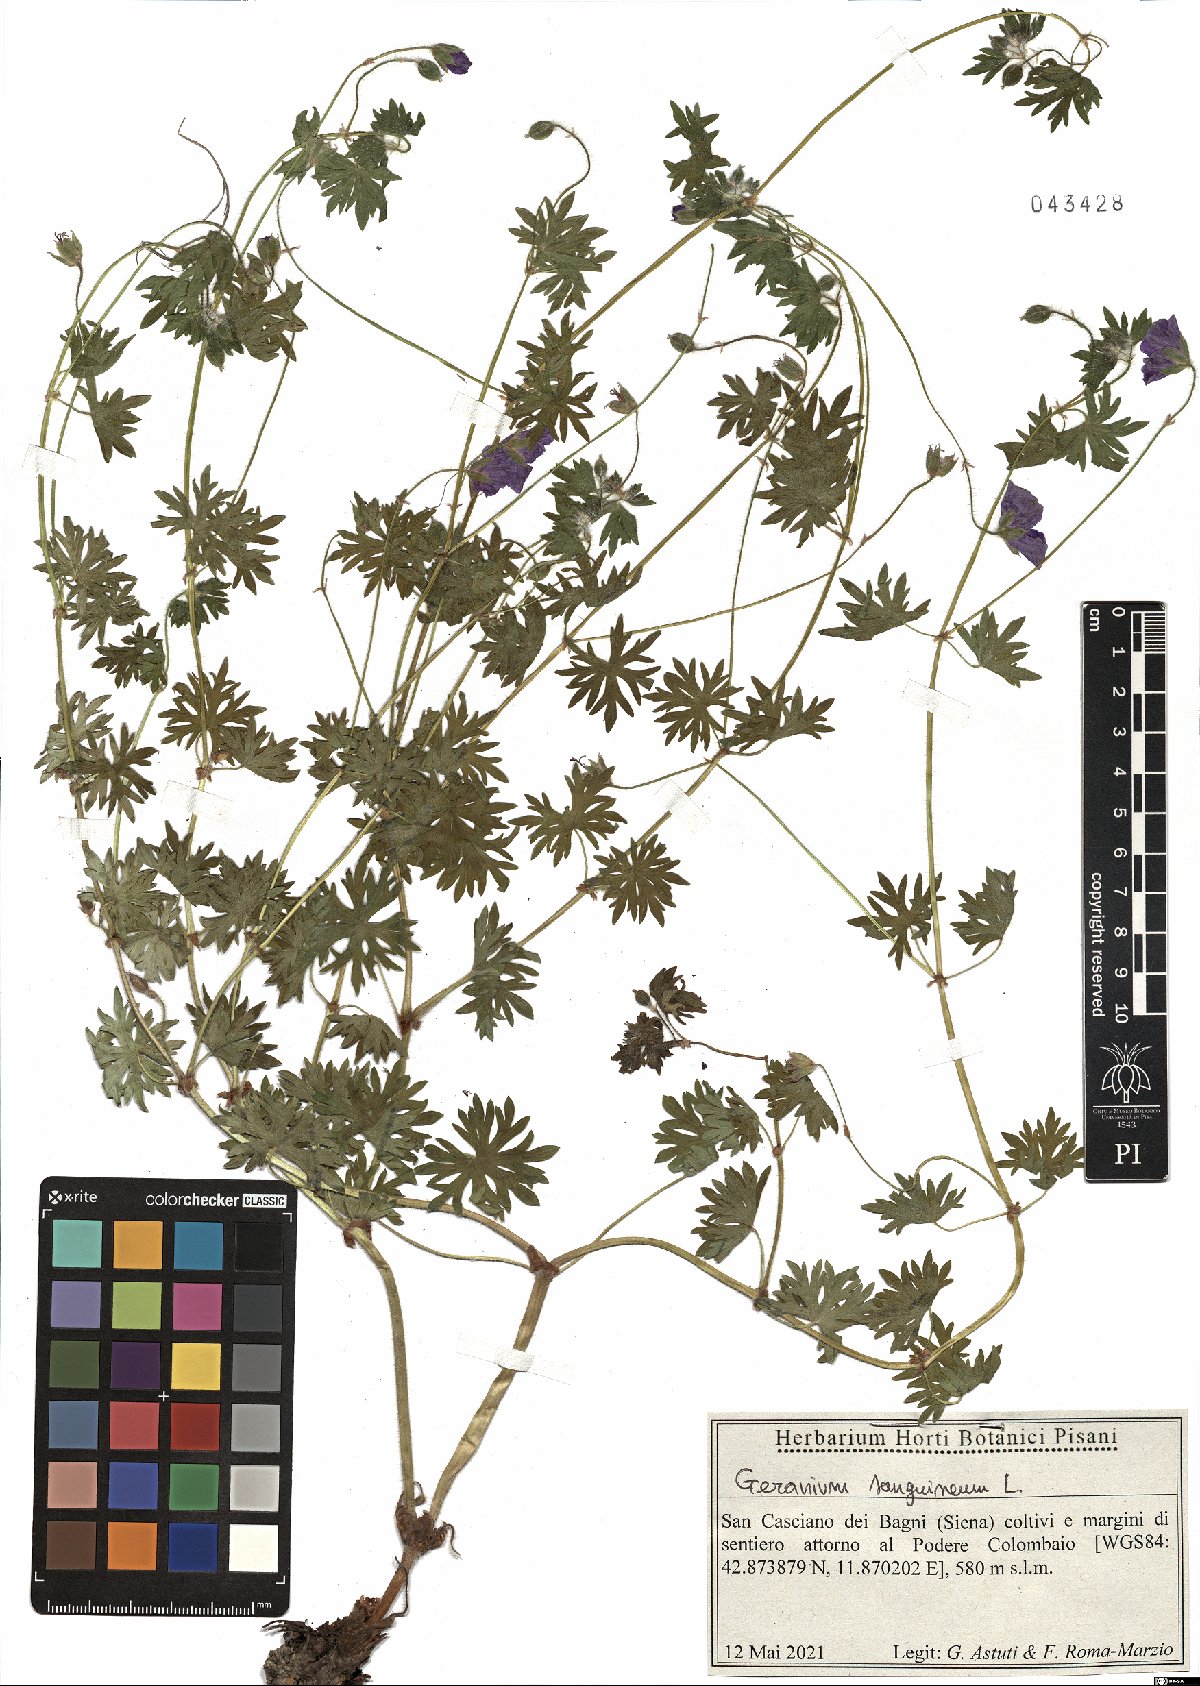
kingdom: Plantae
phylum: Tracheophyta
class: Magnoliopsida
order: Geraniales
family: Geraniaceae
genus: Geranium
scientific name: Geranium sanguineum
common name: Bloody crane's-bill
